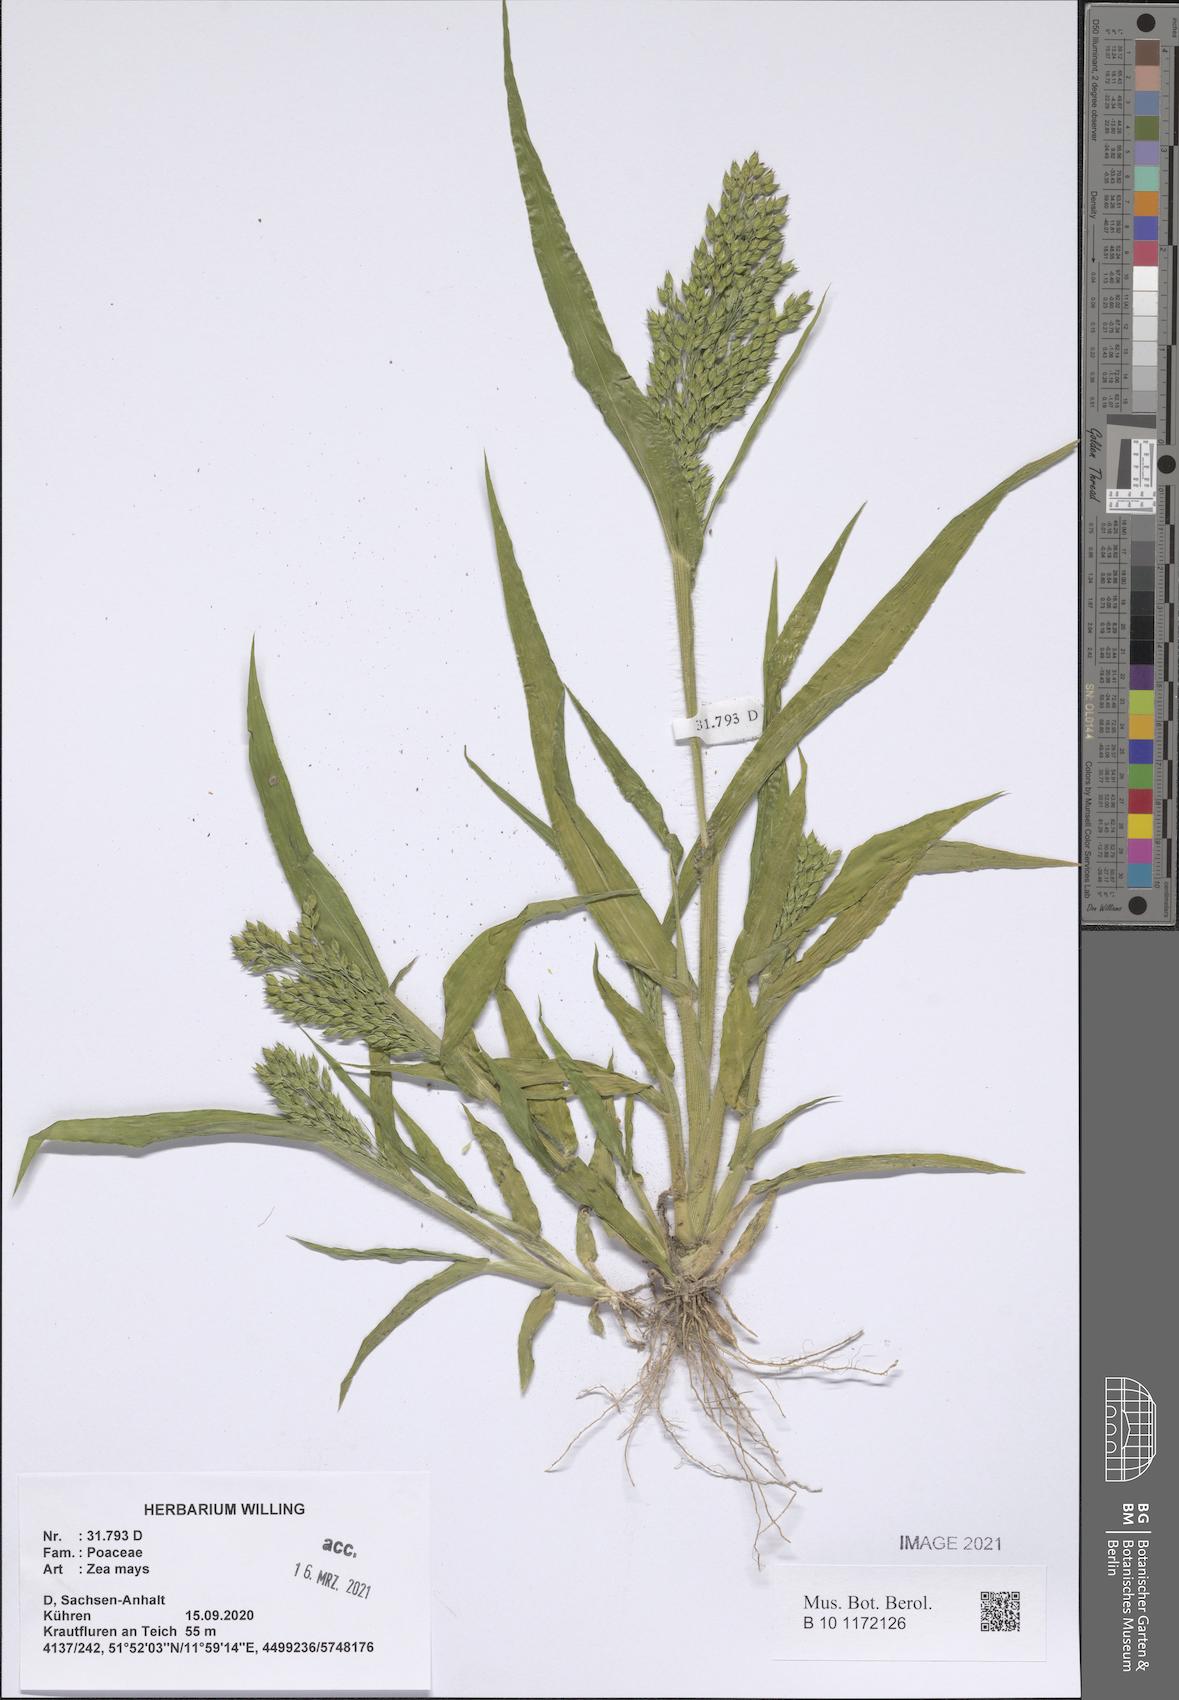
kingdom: Plantae
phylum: Tracheophyta
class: Liliopsida
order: Poales
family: Poaceae
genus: Zea
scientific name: Zea mays
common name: Maize
